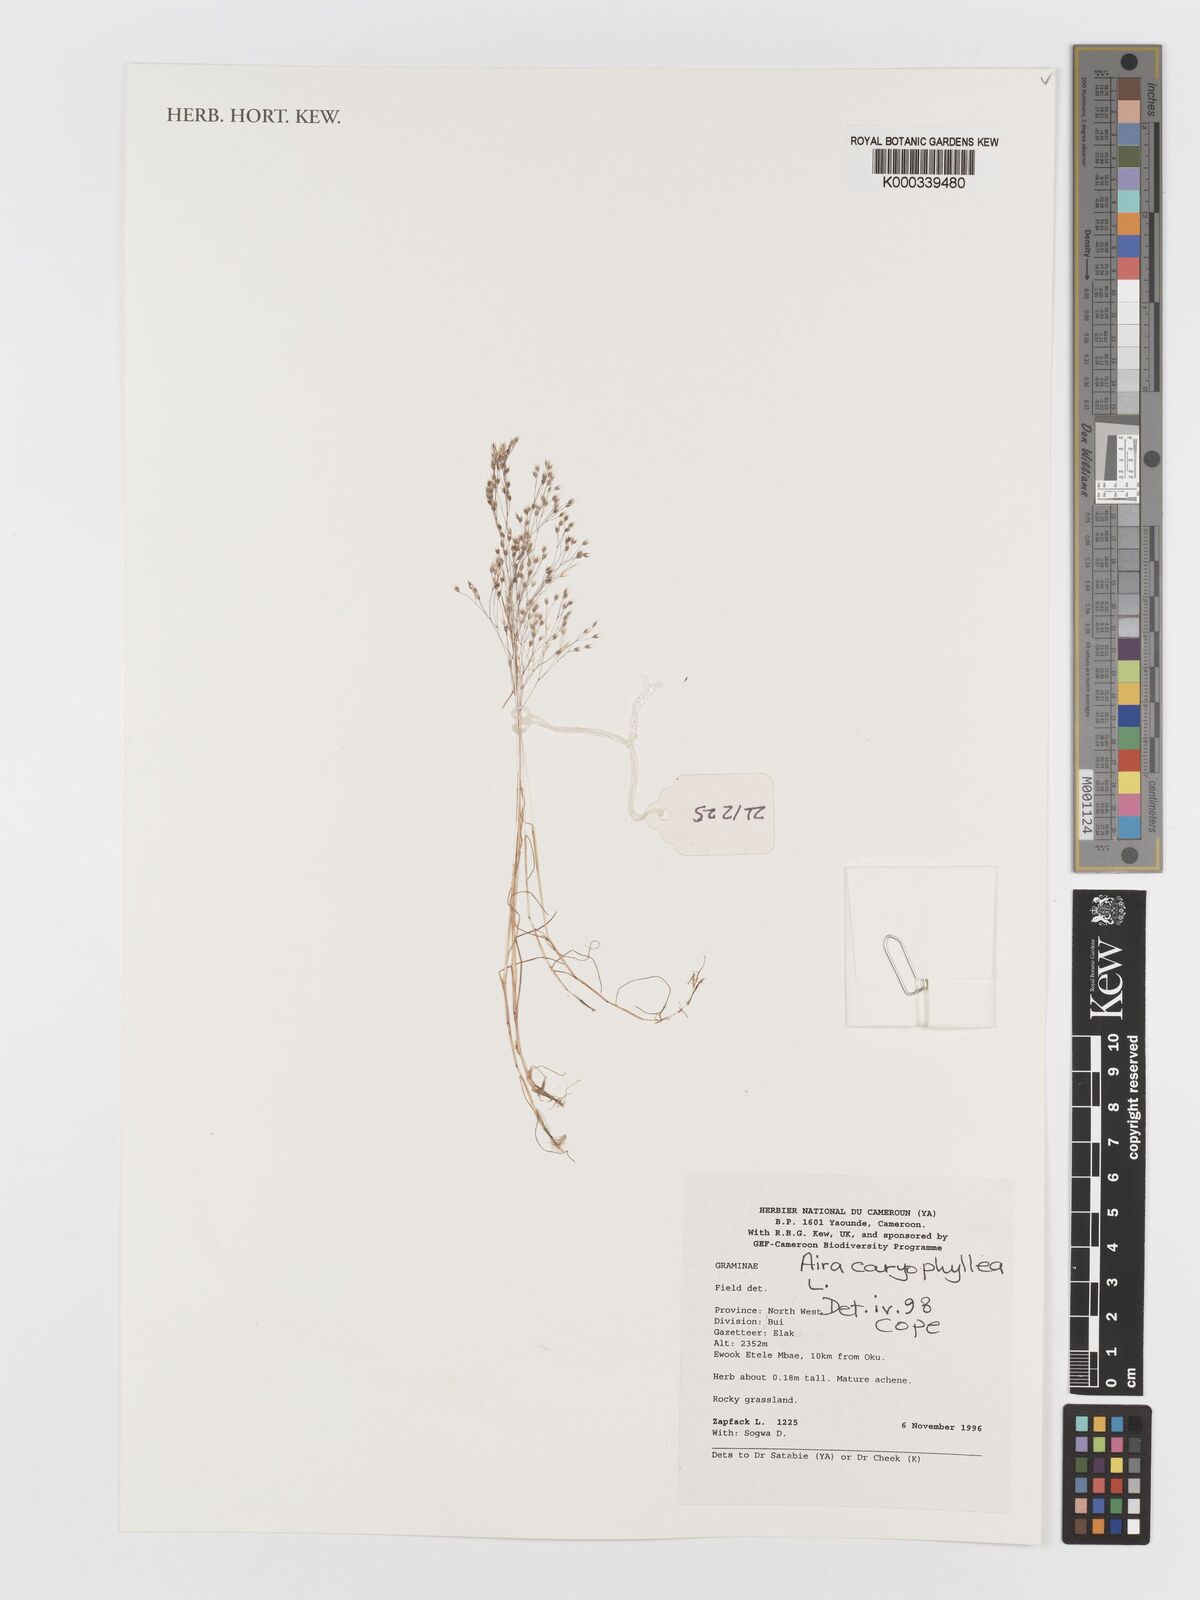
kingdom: Plantae
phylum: Tracheophyta
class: Liliopsida
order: Poales
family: Poaceae
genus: Aira
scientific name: Aira caryophyllea
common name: Silver hairgrass
